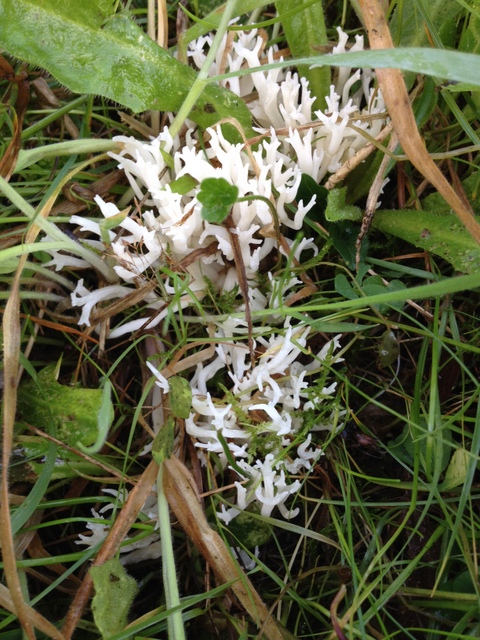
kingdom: Fungi
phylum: Basidiomycota
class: Agaricomycetes
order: Agaricales
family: Clavariaceae
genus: Ramariopsis
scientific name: Ramariopsis robusta
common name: tykgrenet køllesvamp
